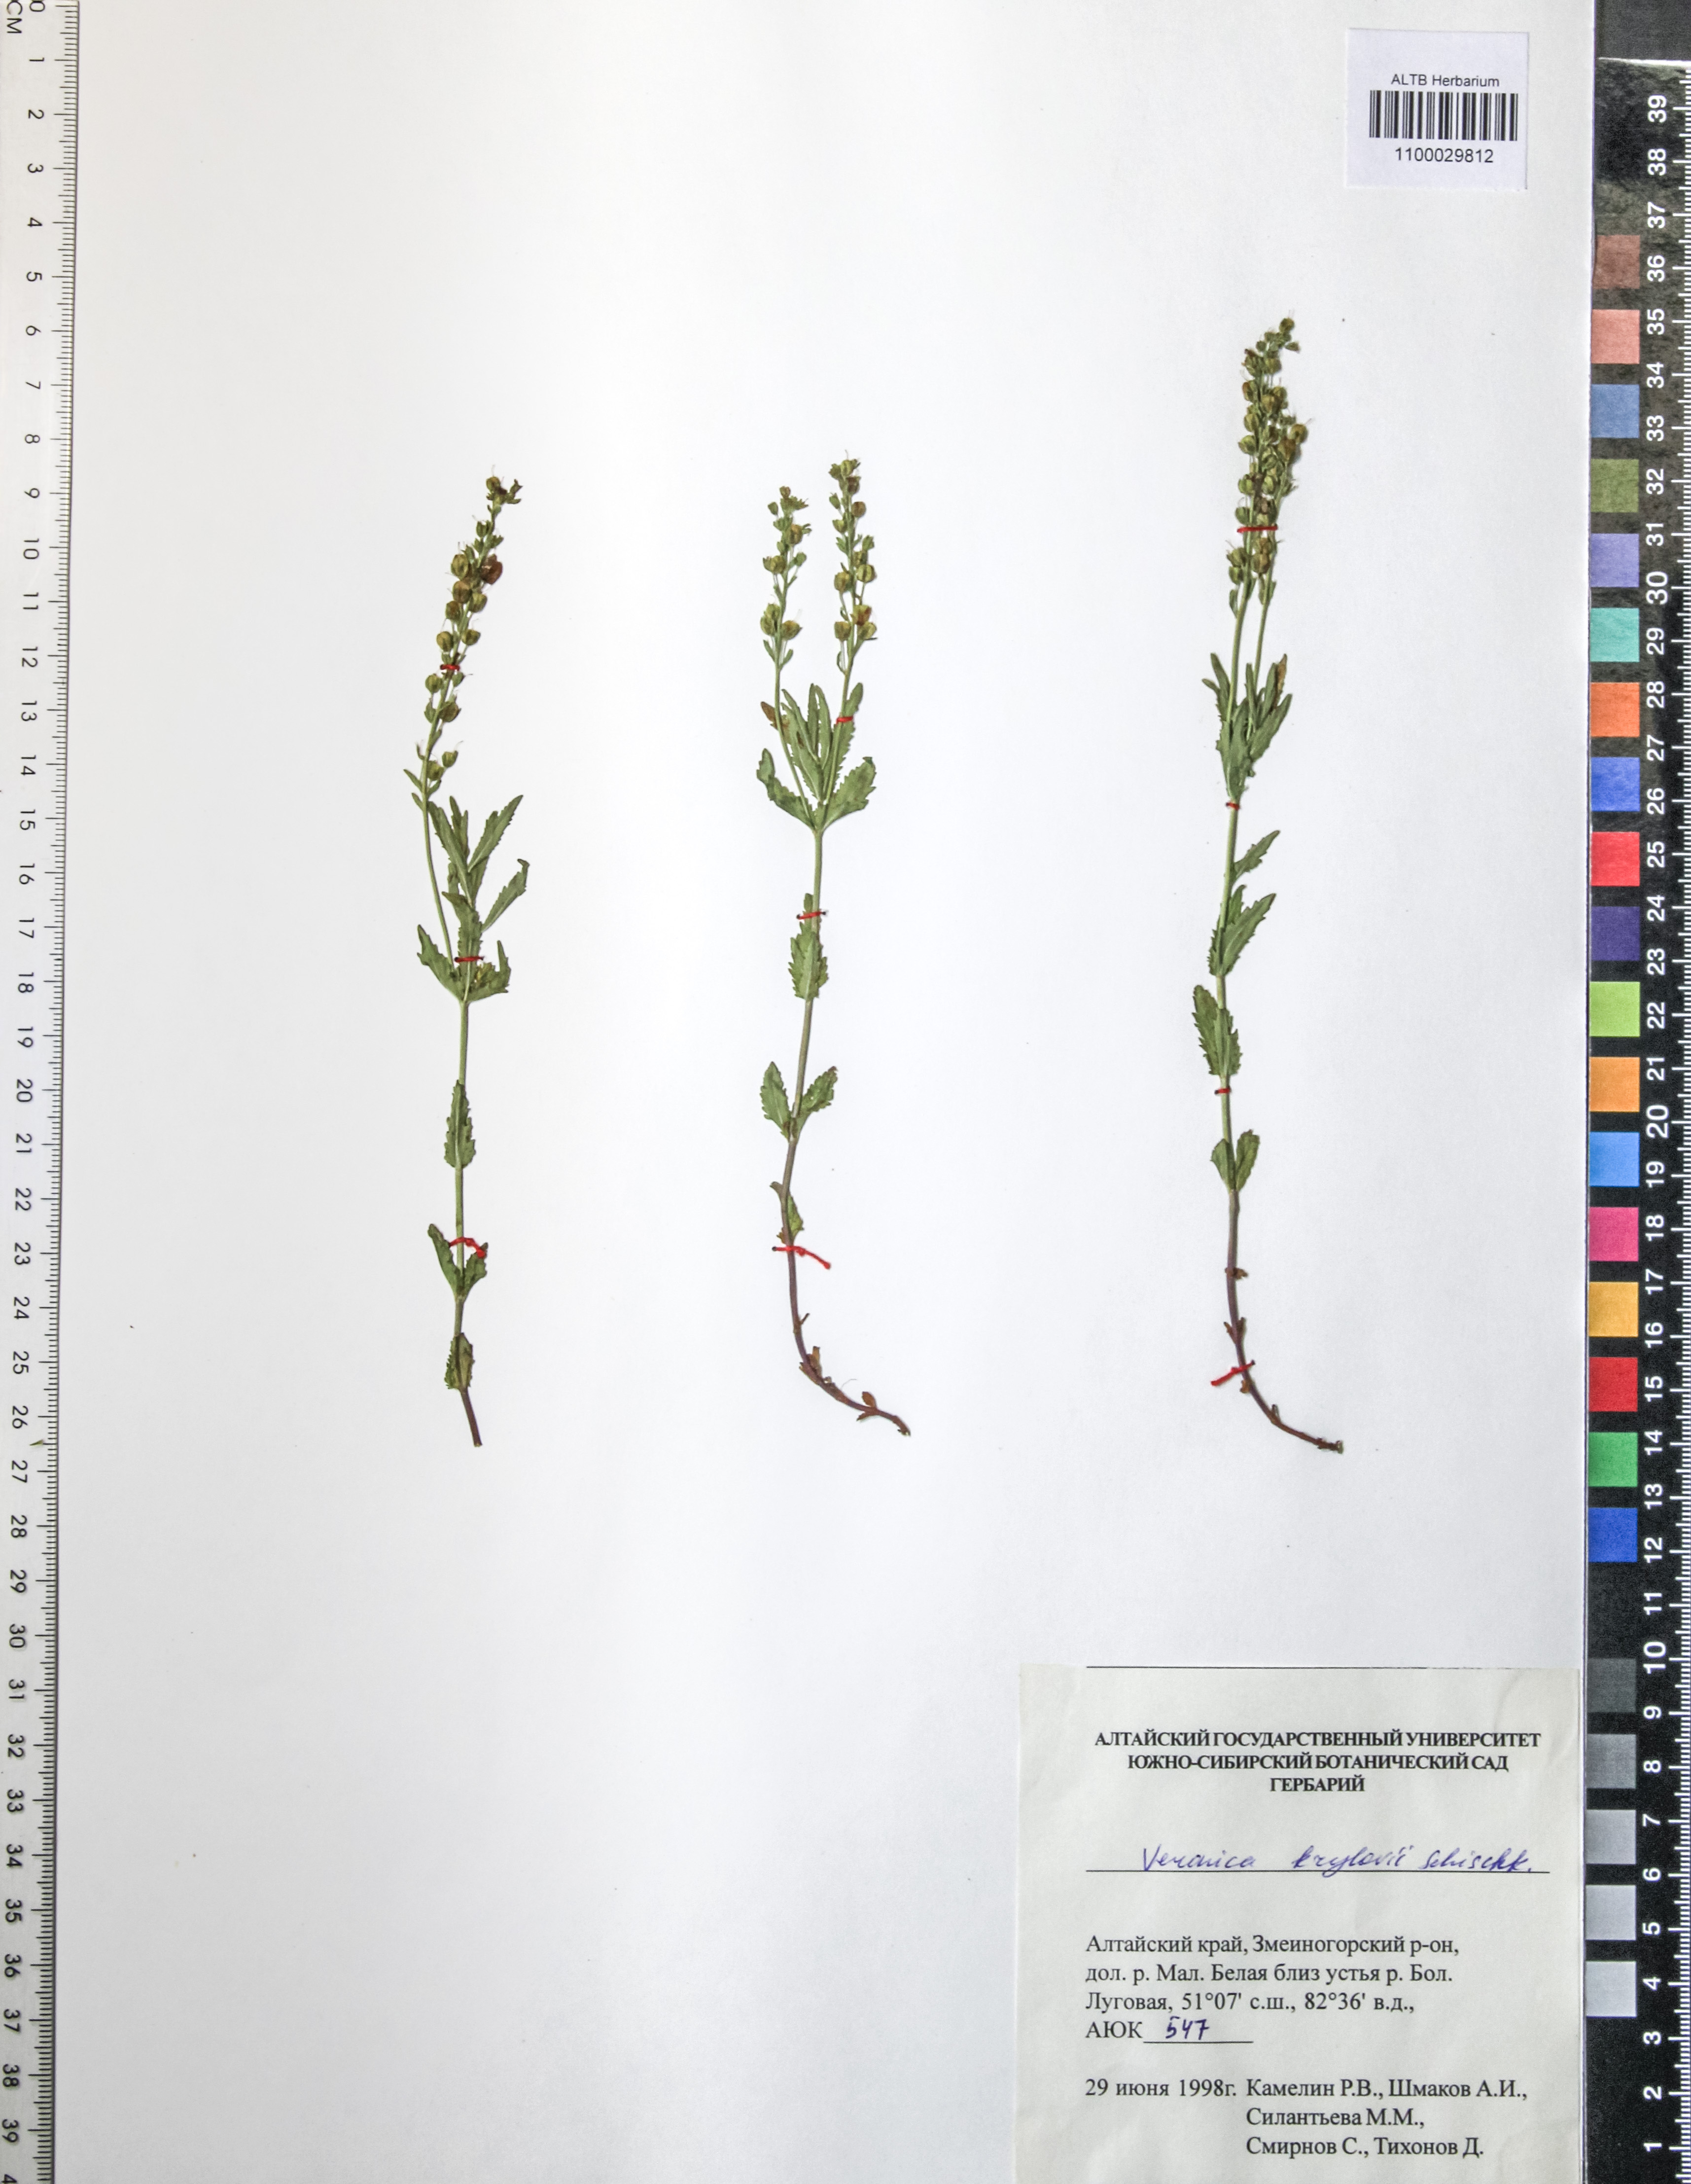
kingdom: Plantae
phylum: Tracheophyta
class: Magnoliopsida
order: Lamiales
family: Plantaginaceae
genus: Veronica
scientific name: Veronica krylovii
